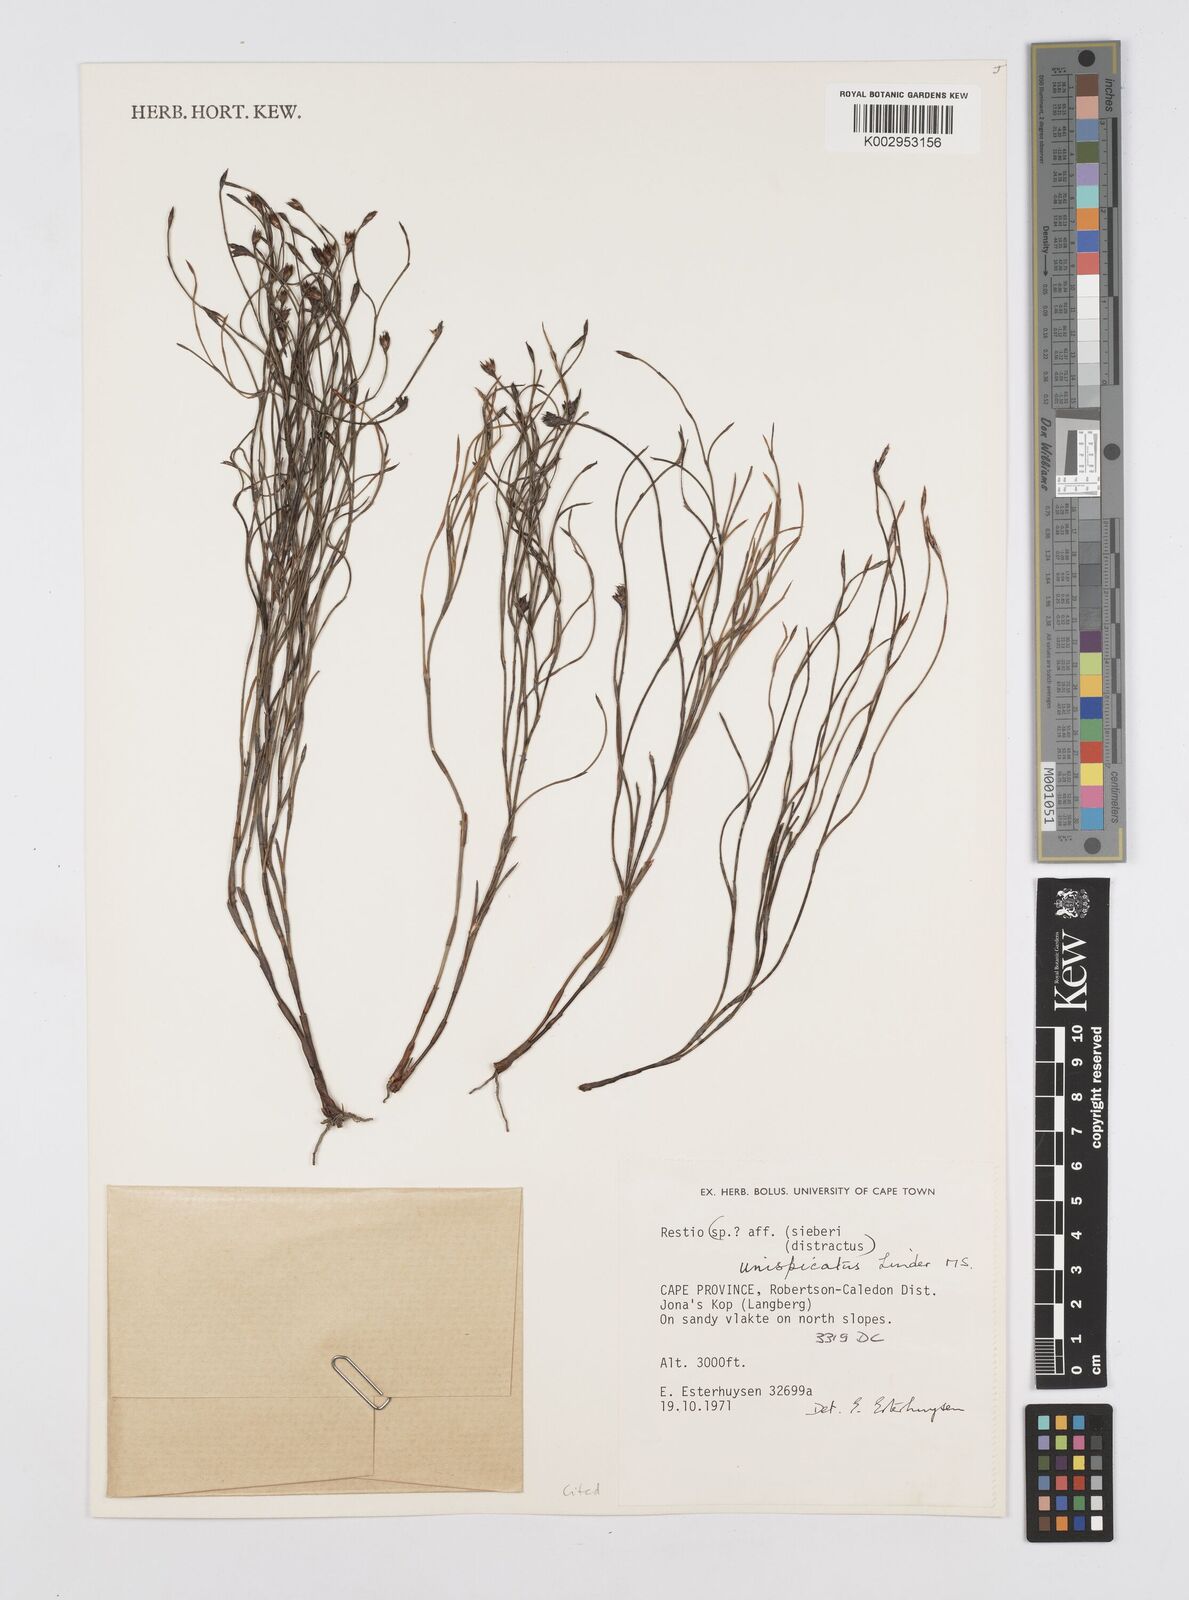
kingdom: Plantae
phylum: Tracheophyta
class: Liliopsida
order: Poales
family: Restionaceae
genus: Restio
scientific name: Restio unispicatus
